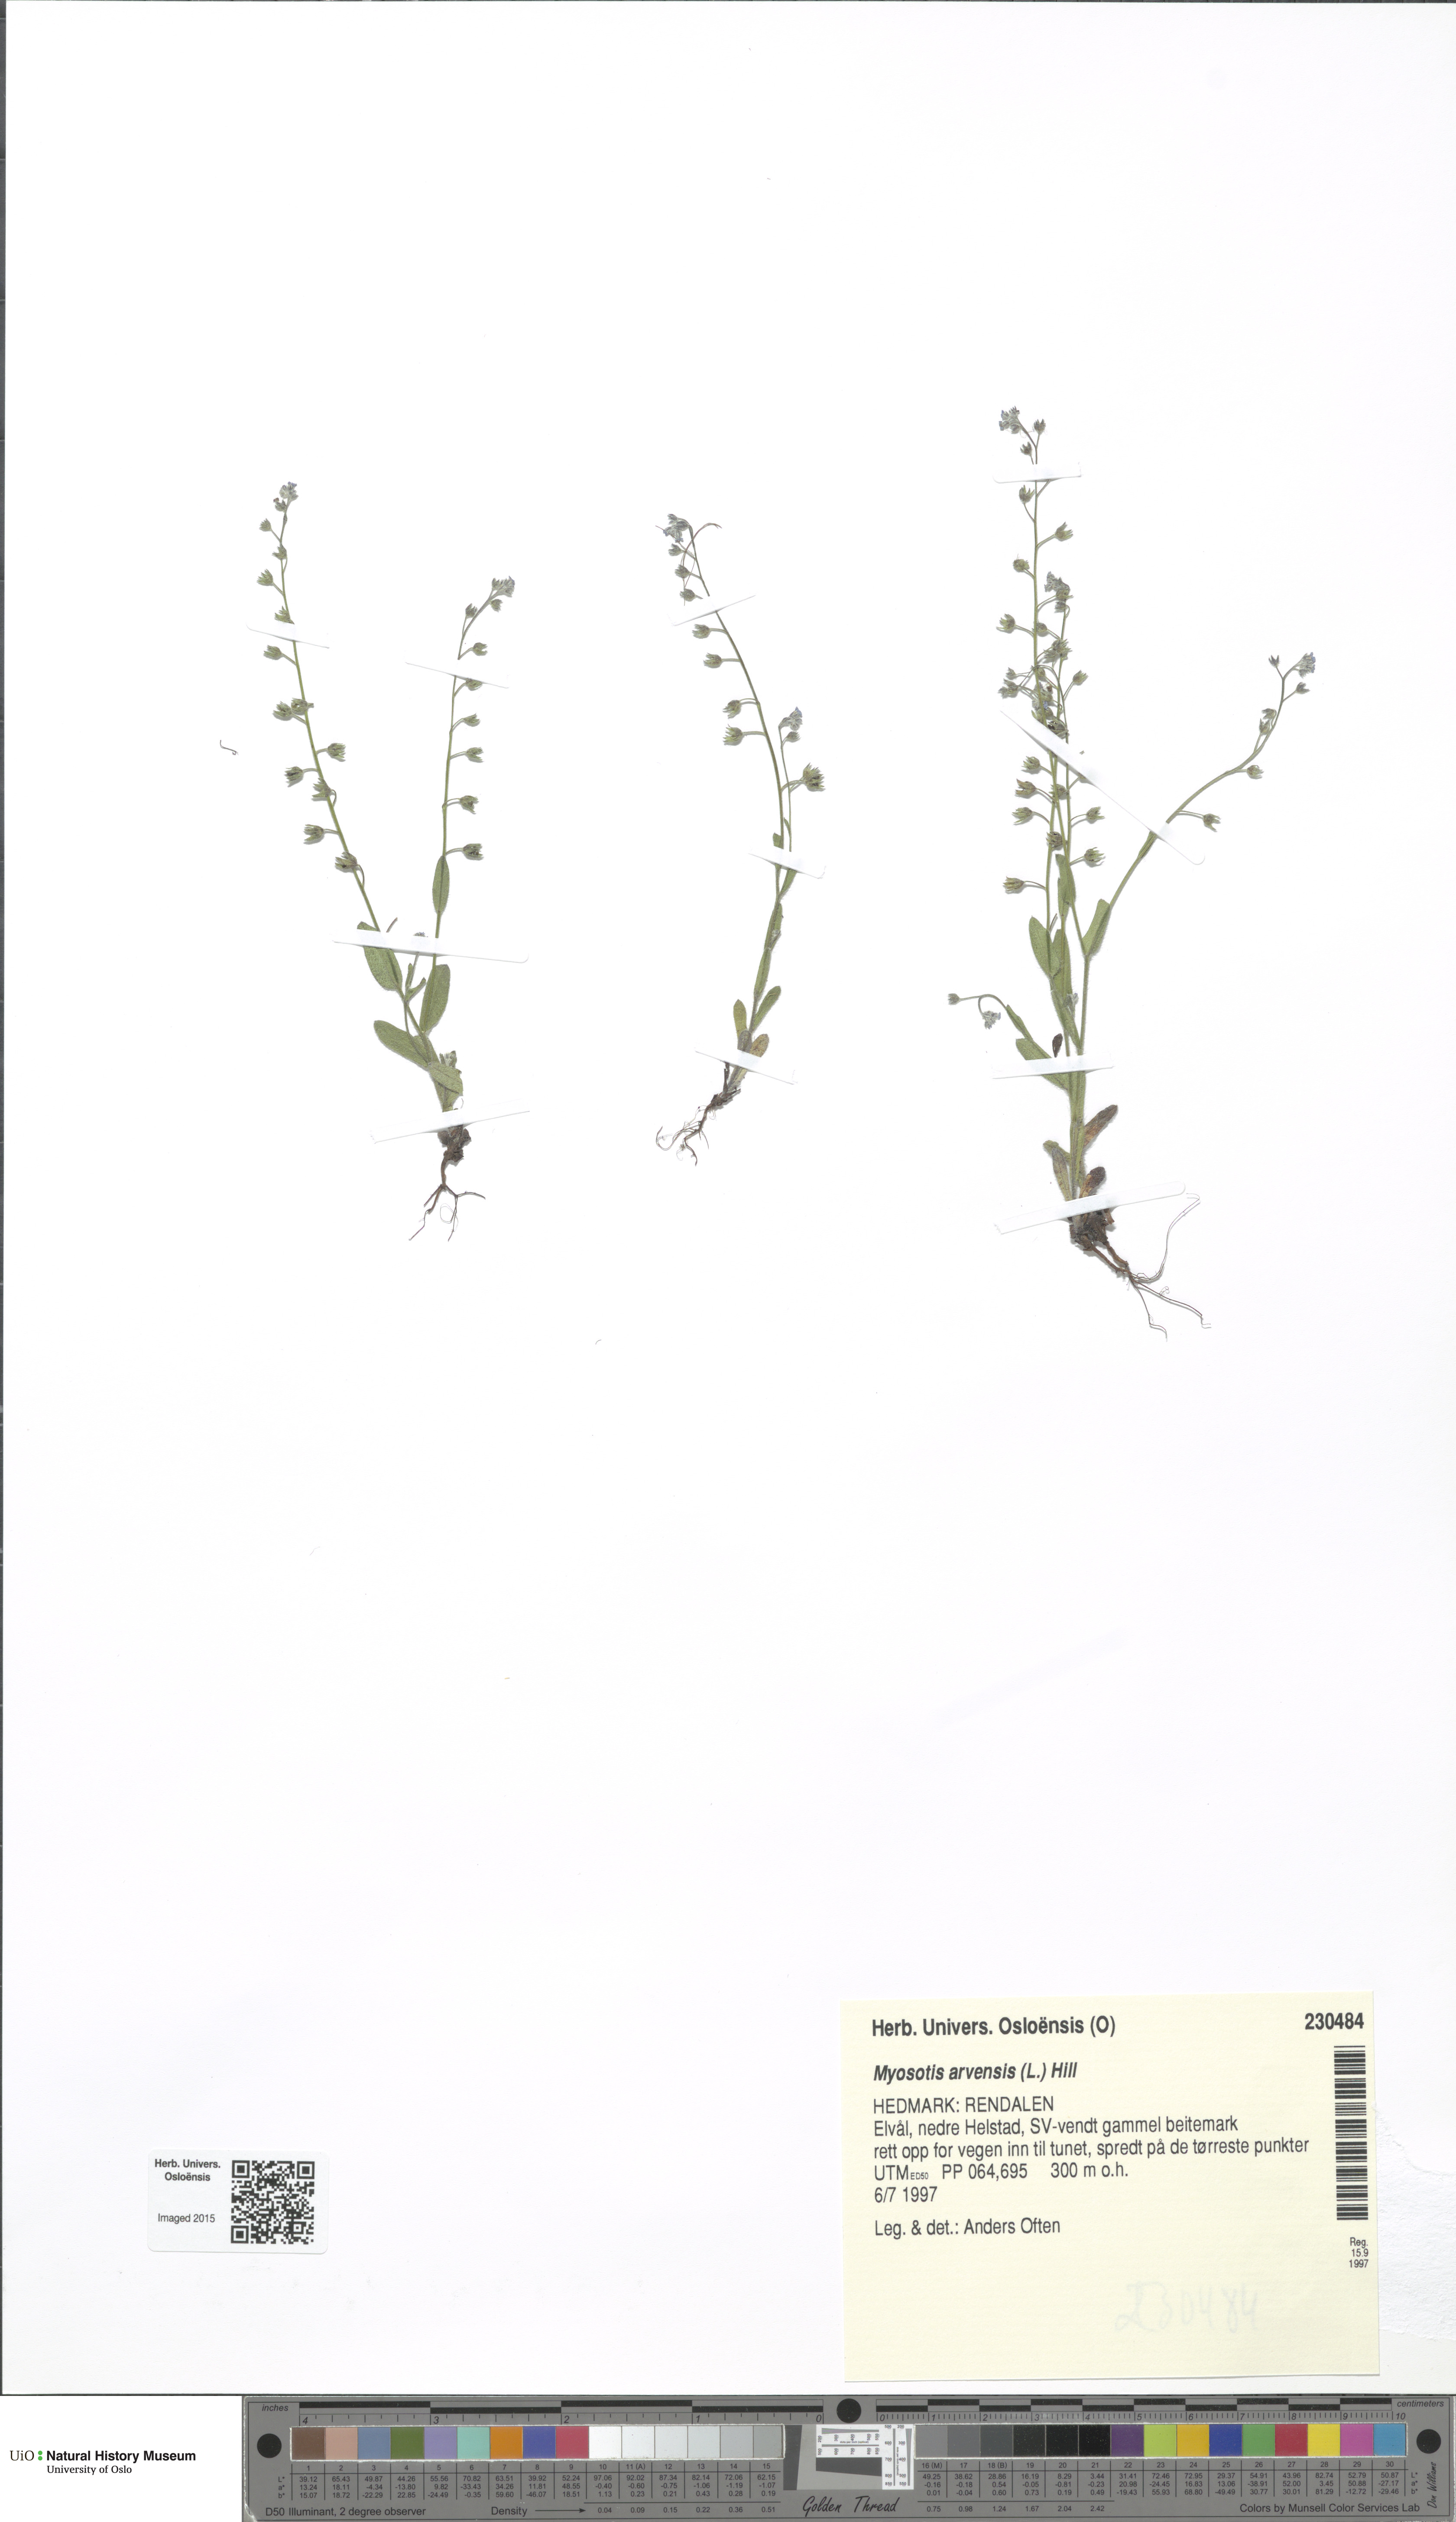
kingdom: Plantae
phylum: Tracheophyta
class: Magnoliopsida
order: Boraginales
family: Boraginaceae
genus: Myosotis
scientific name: Myosotis arvensis
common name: Field forget-me-not
